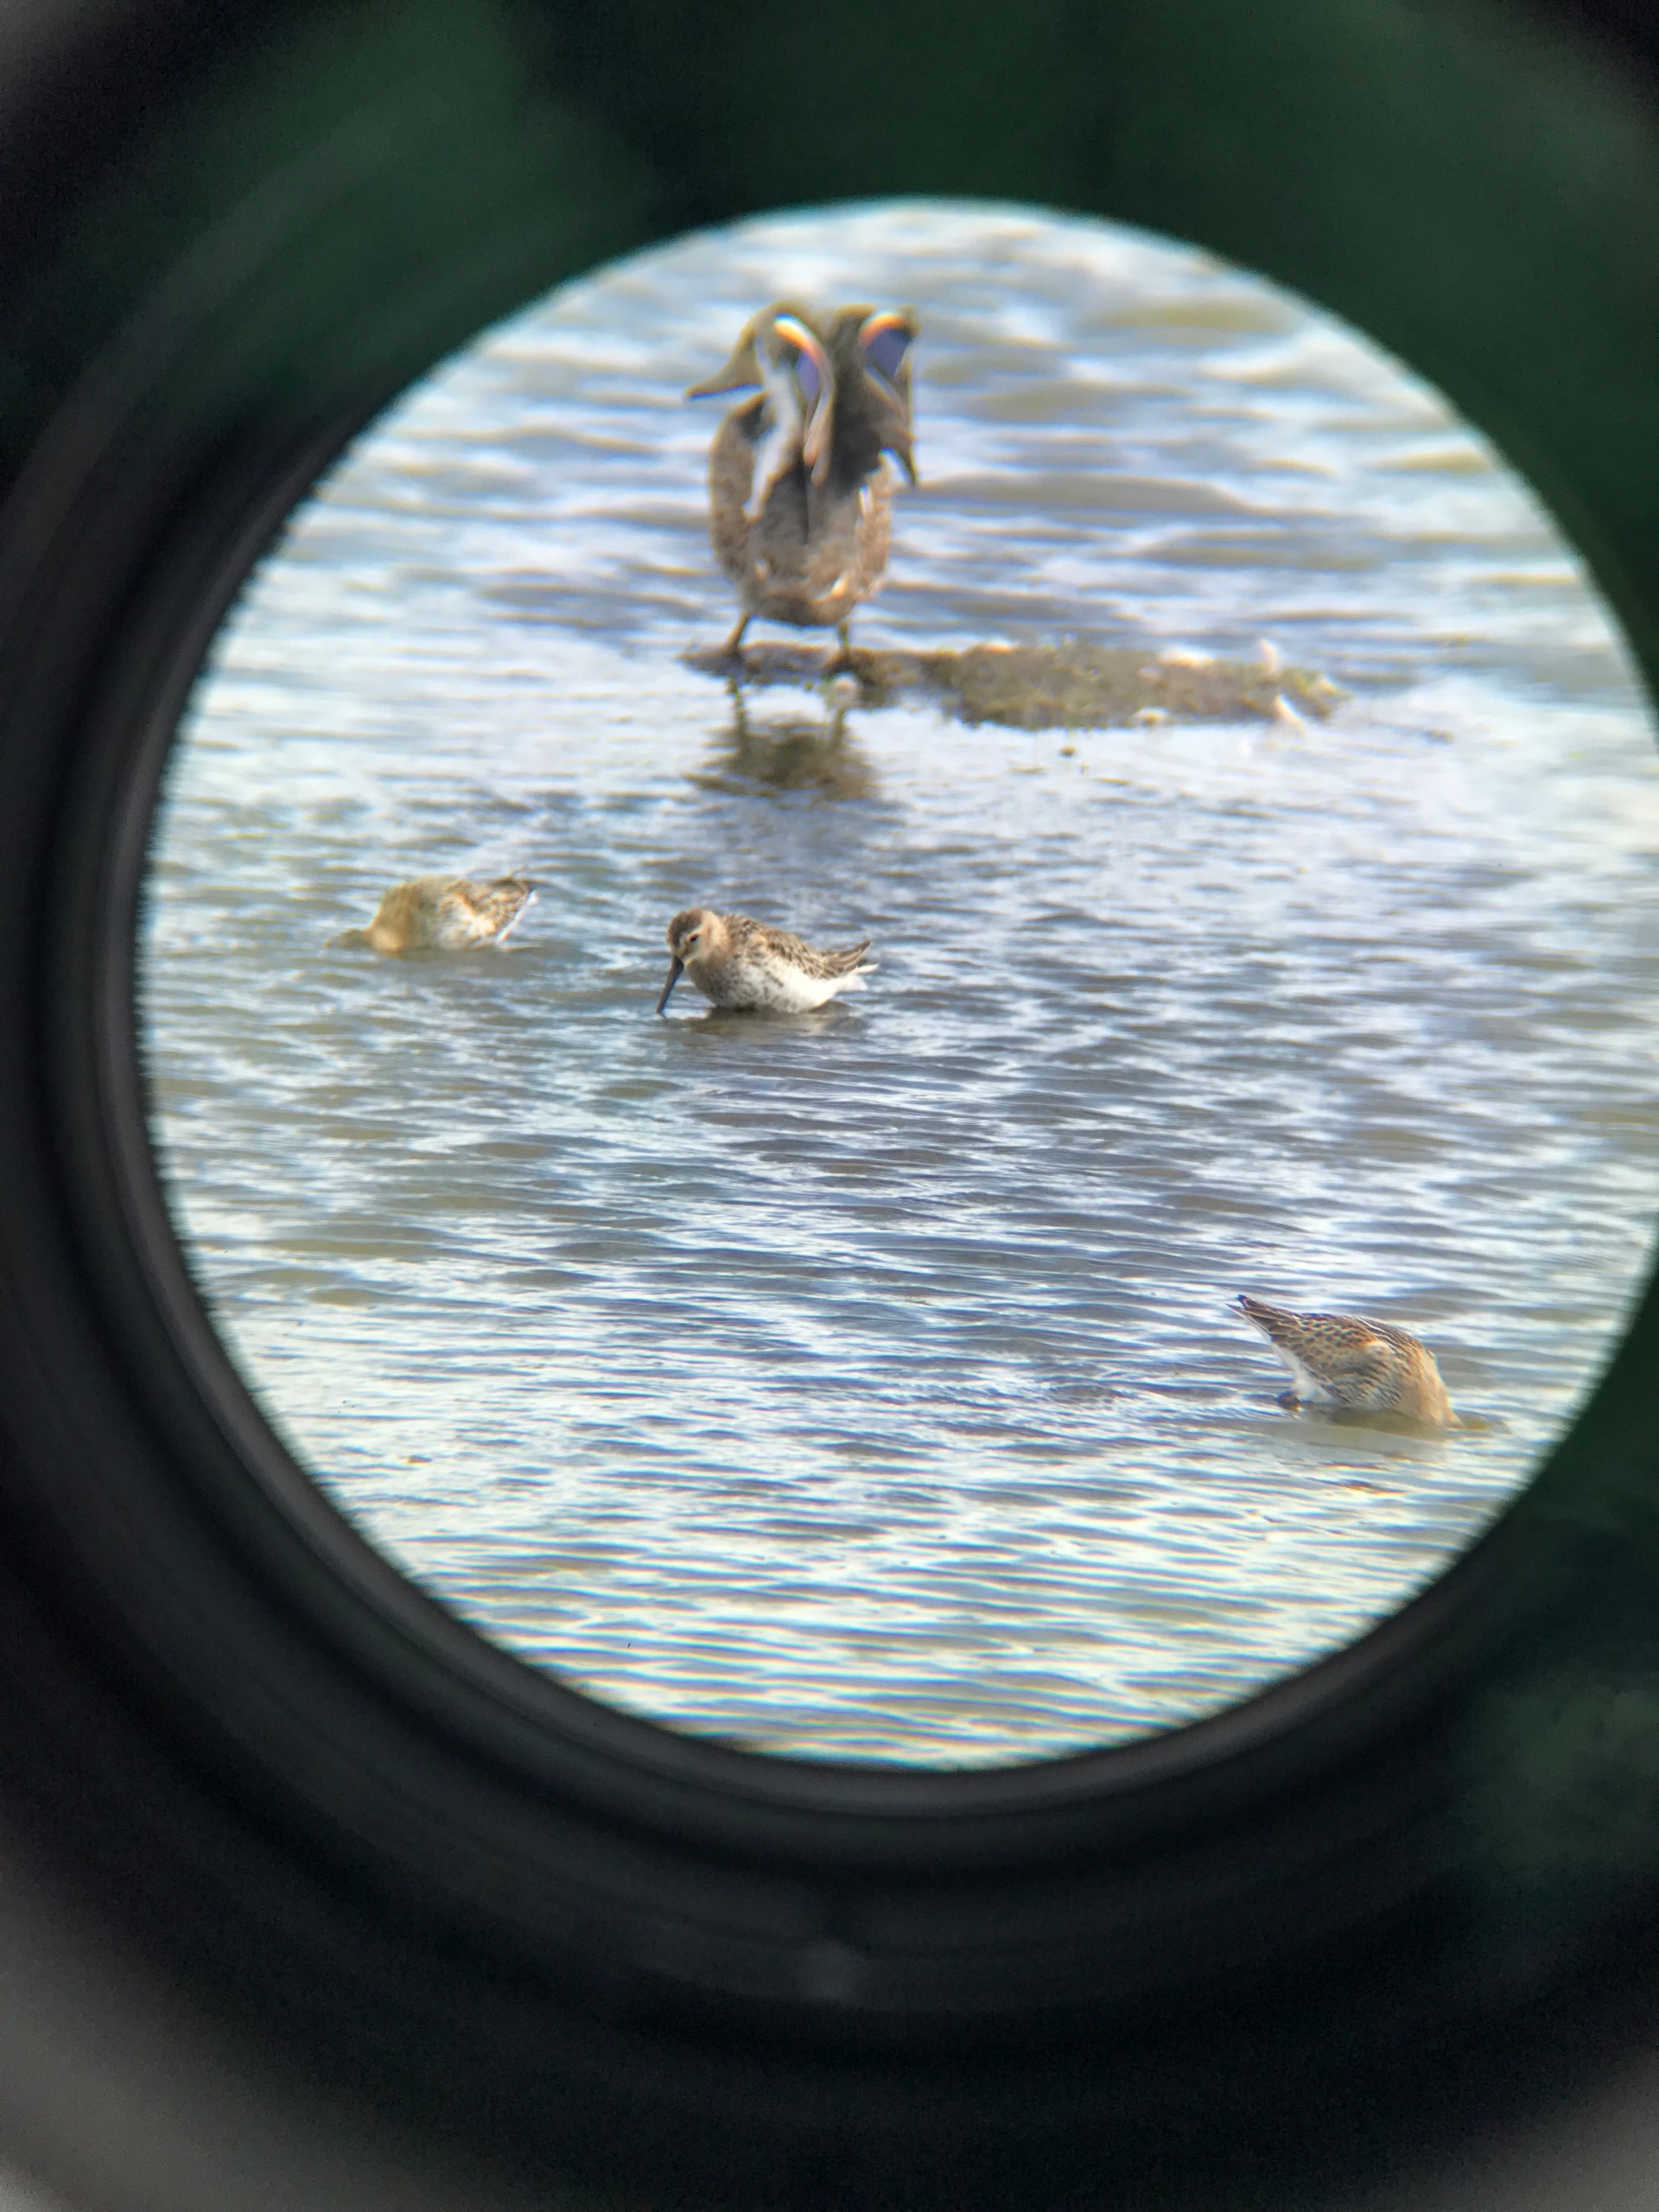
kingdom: Animalia
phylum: Chordata
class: Aves
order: Charadriiformes
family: Scolopacidae
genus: Calidris
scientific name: Calidris alpina
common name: Almindelig ryle
